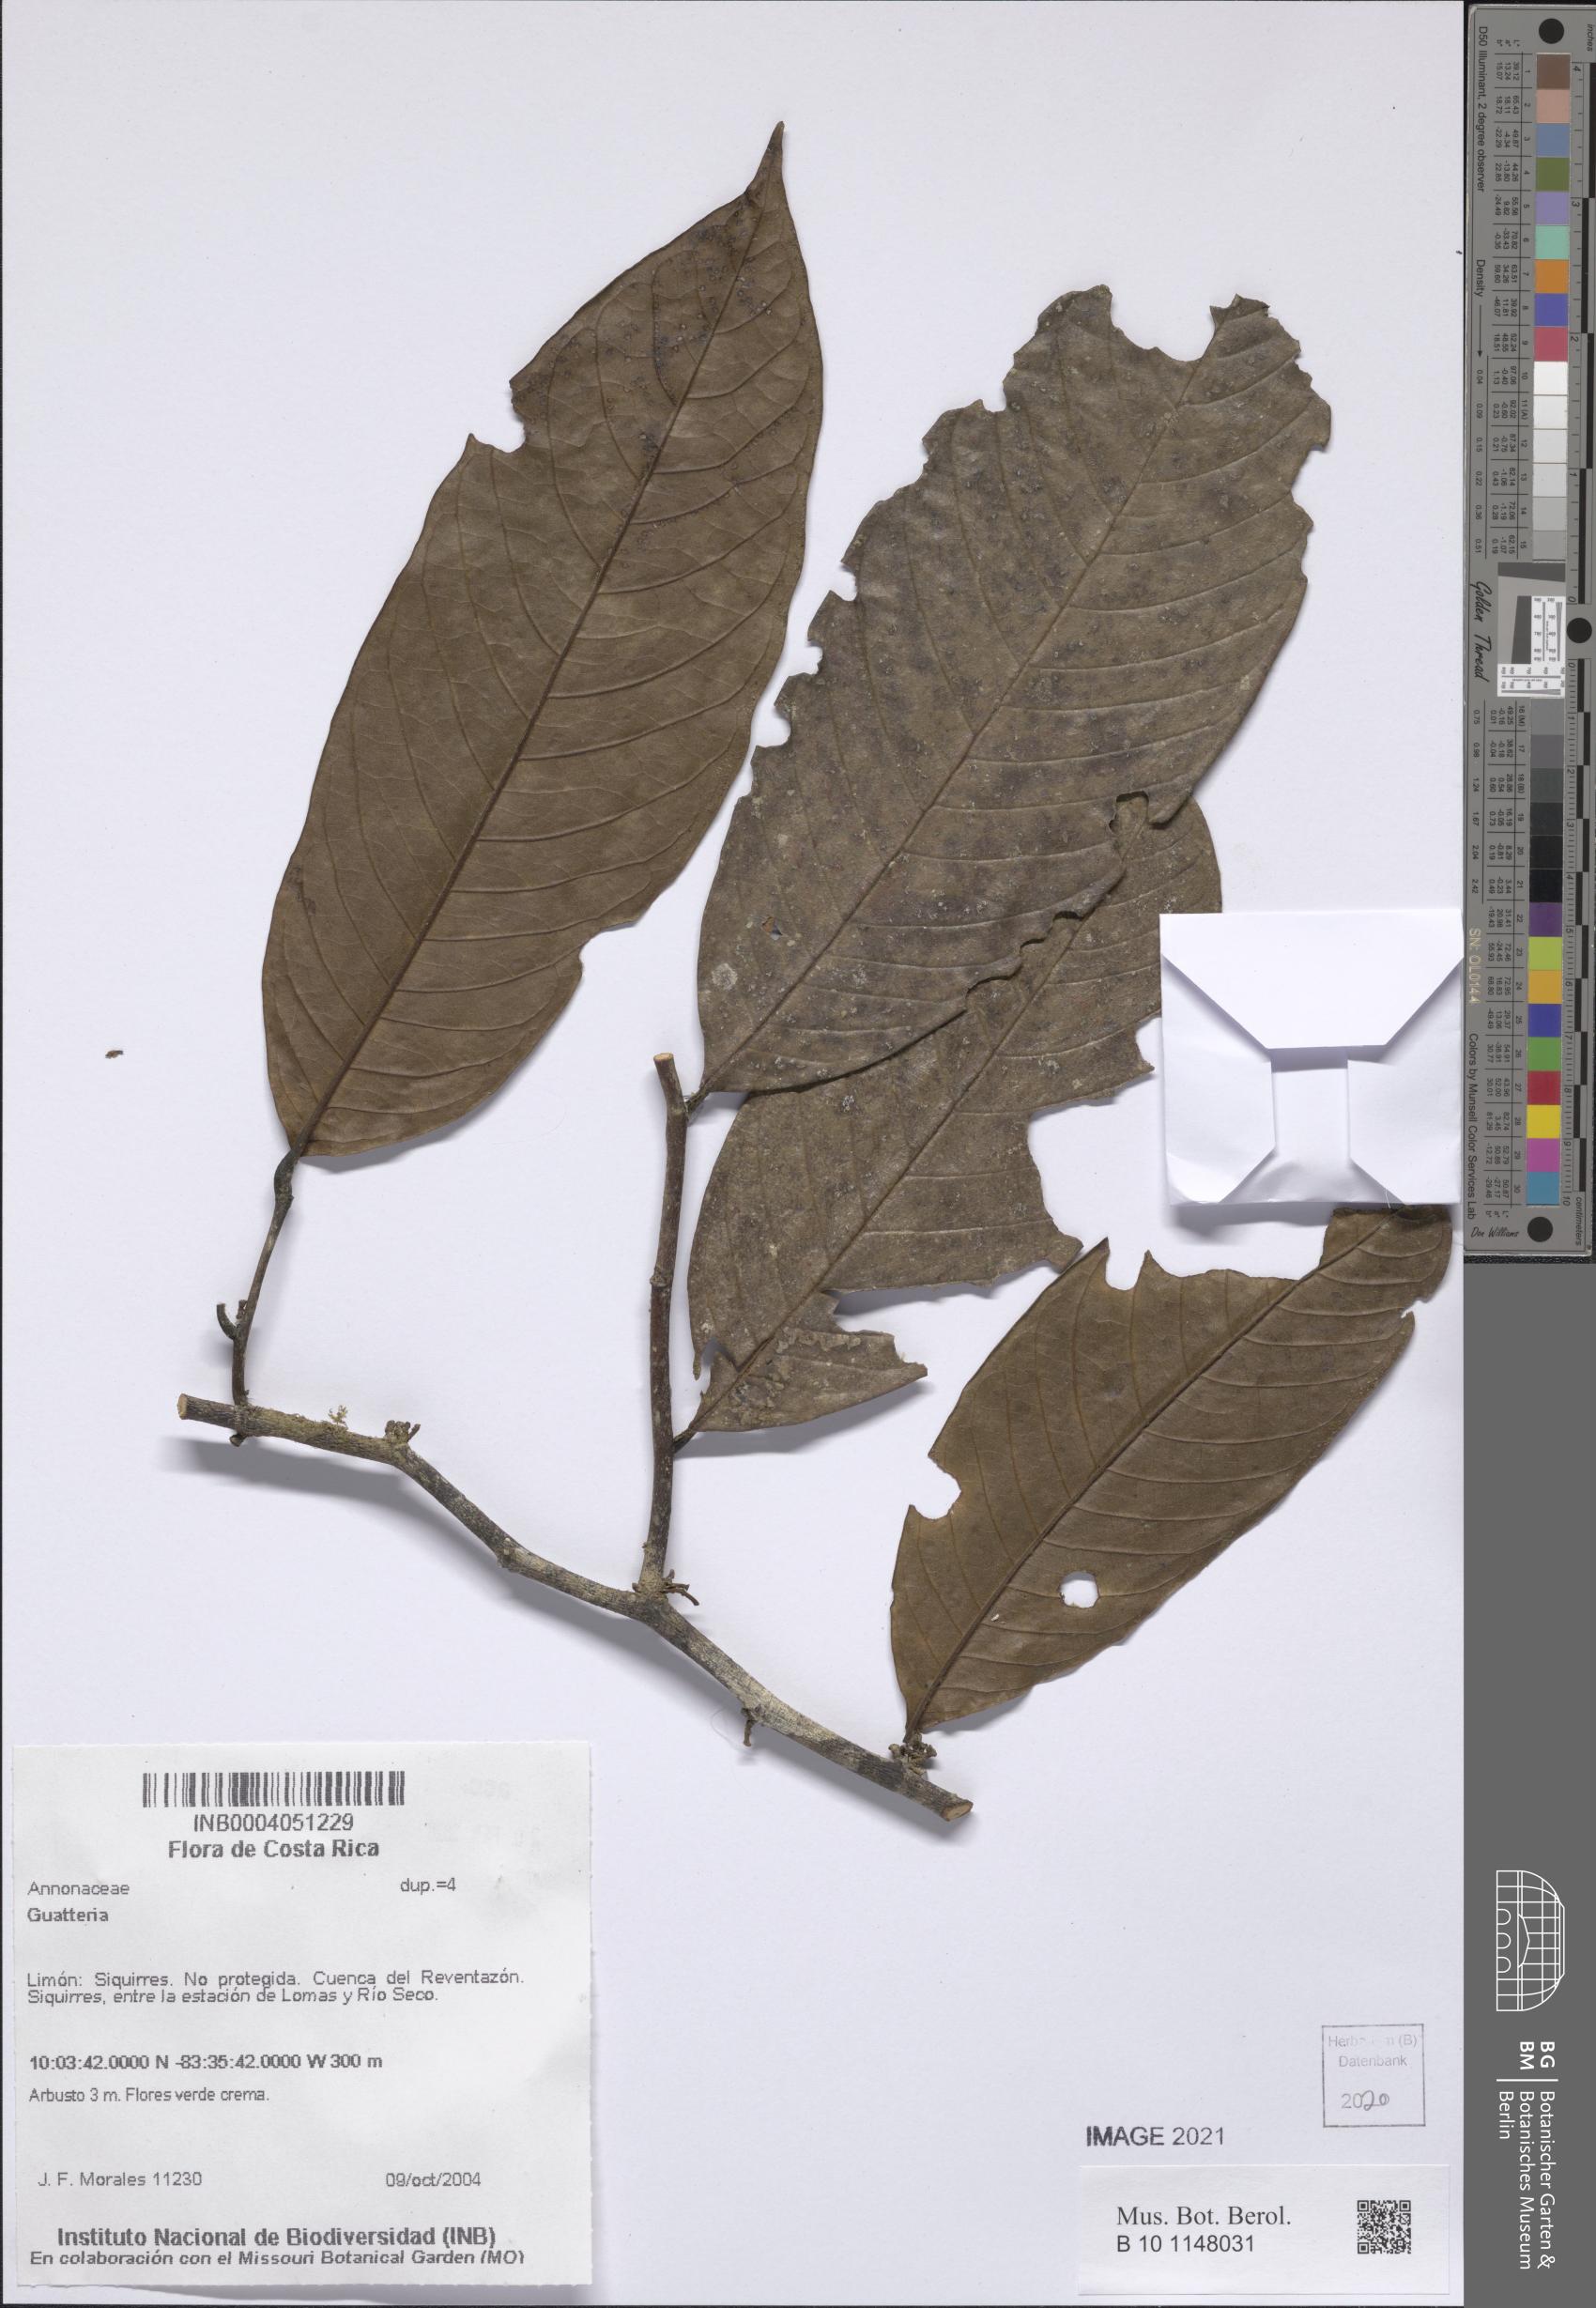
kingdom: Plantae
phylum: Tracheophyta
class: Magnoliopsida
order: Magnoliales
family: Annonaceae
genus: Guatteria
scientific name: Guatteria
